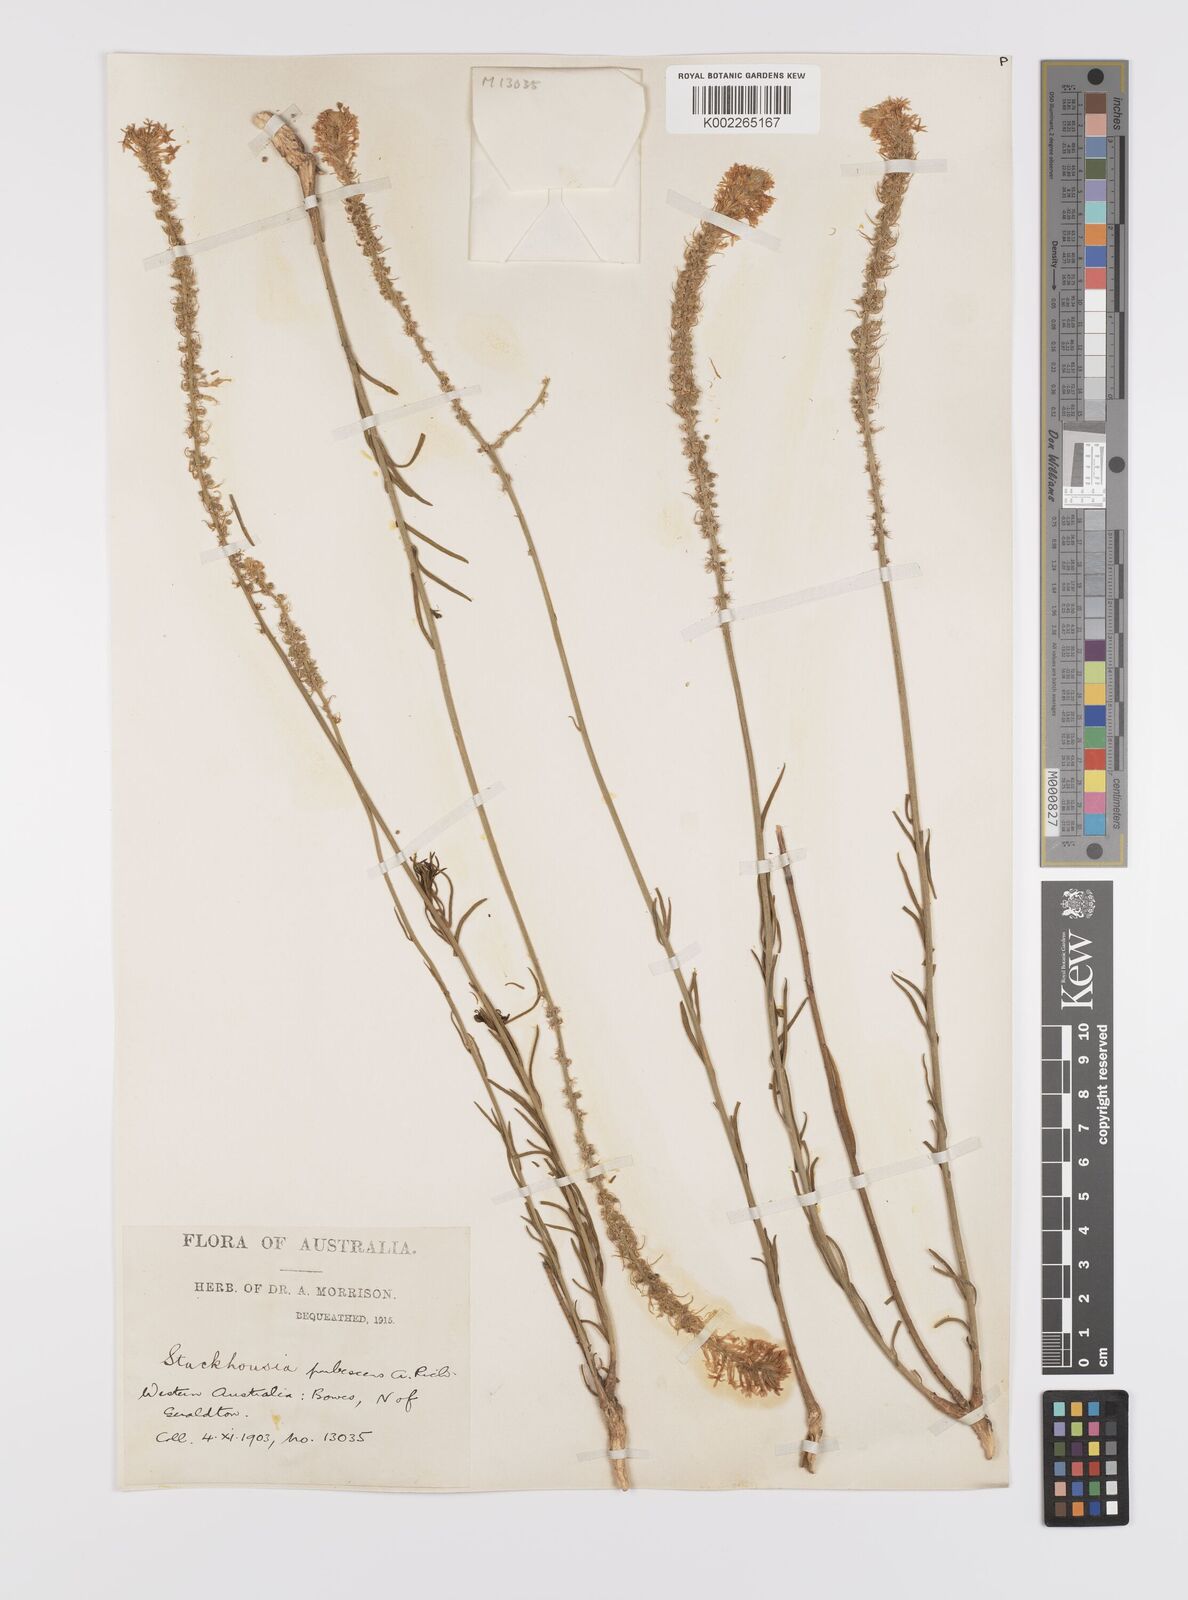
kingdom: Plantae
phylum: Tracheophyta
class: Magnoliopsida
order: Celastrales
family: Celastraceae
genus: Stackhousia
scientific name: Stackhousia monogyna
